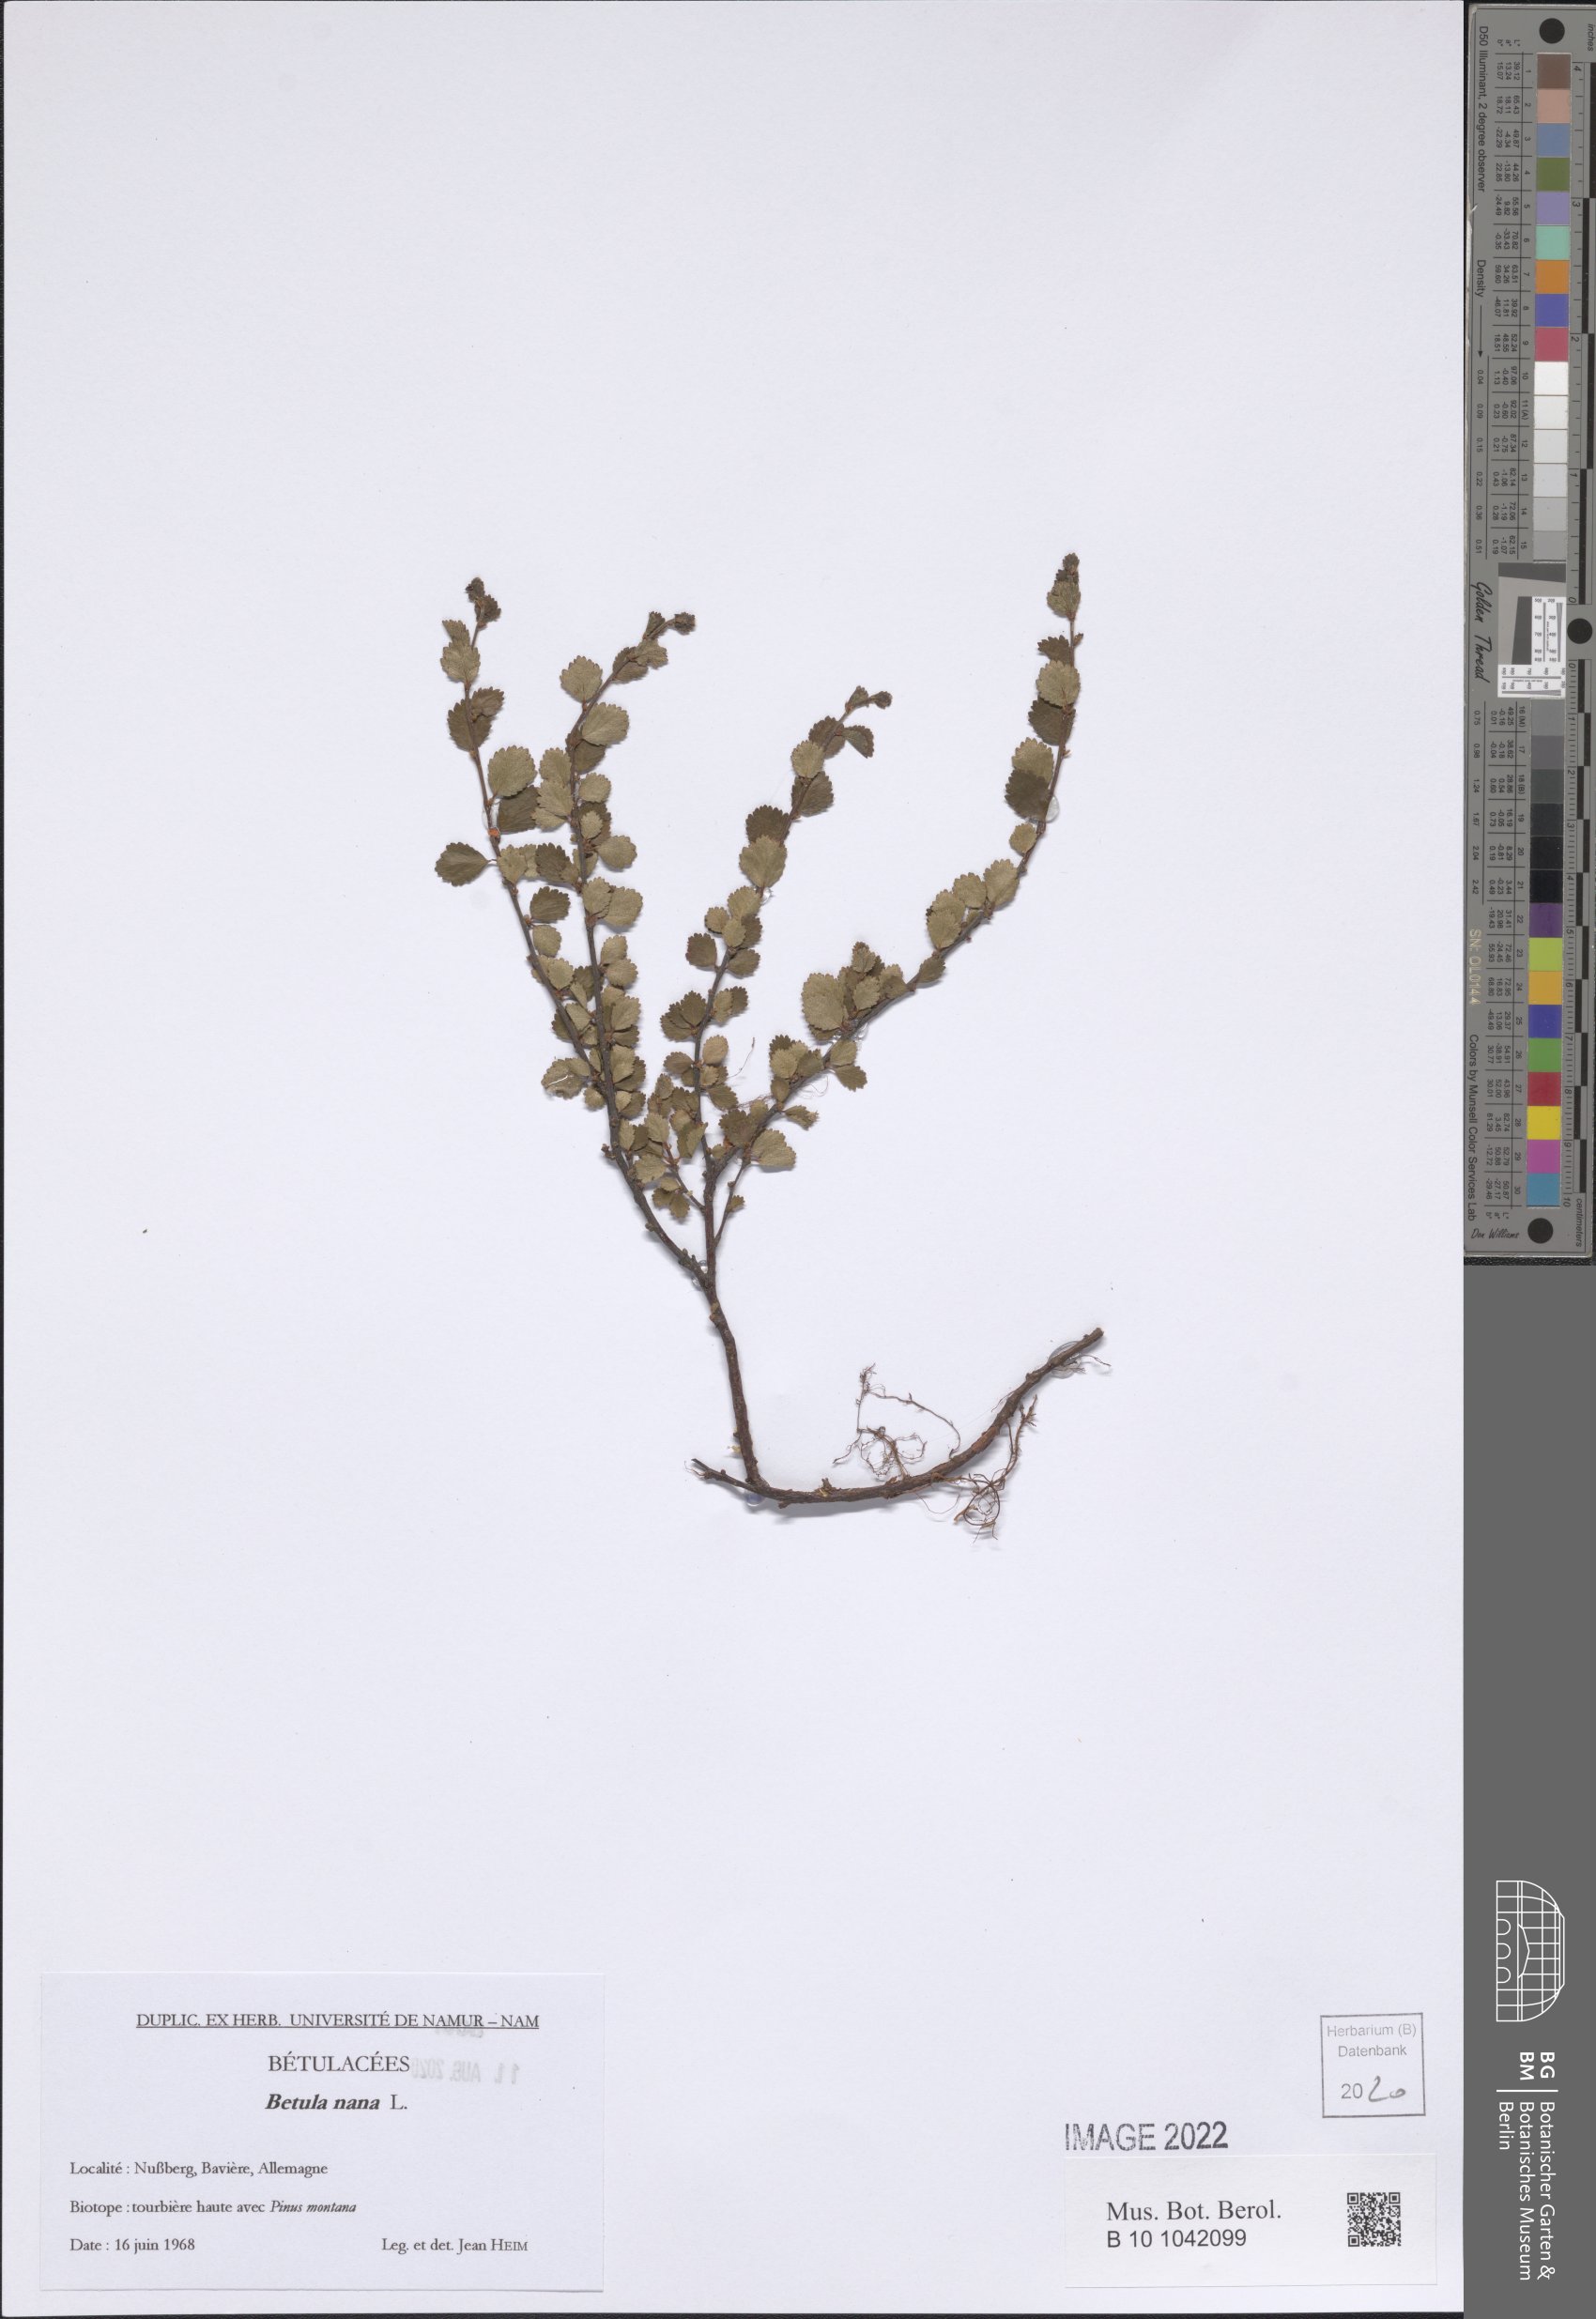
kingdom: Plantae
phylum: Tracheophyta
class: Magnoliopsida
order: Fagales
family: Betulaceae
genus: Betula
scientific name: Betula nana
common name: Arctic dwarf birch
